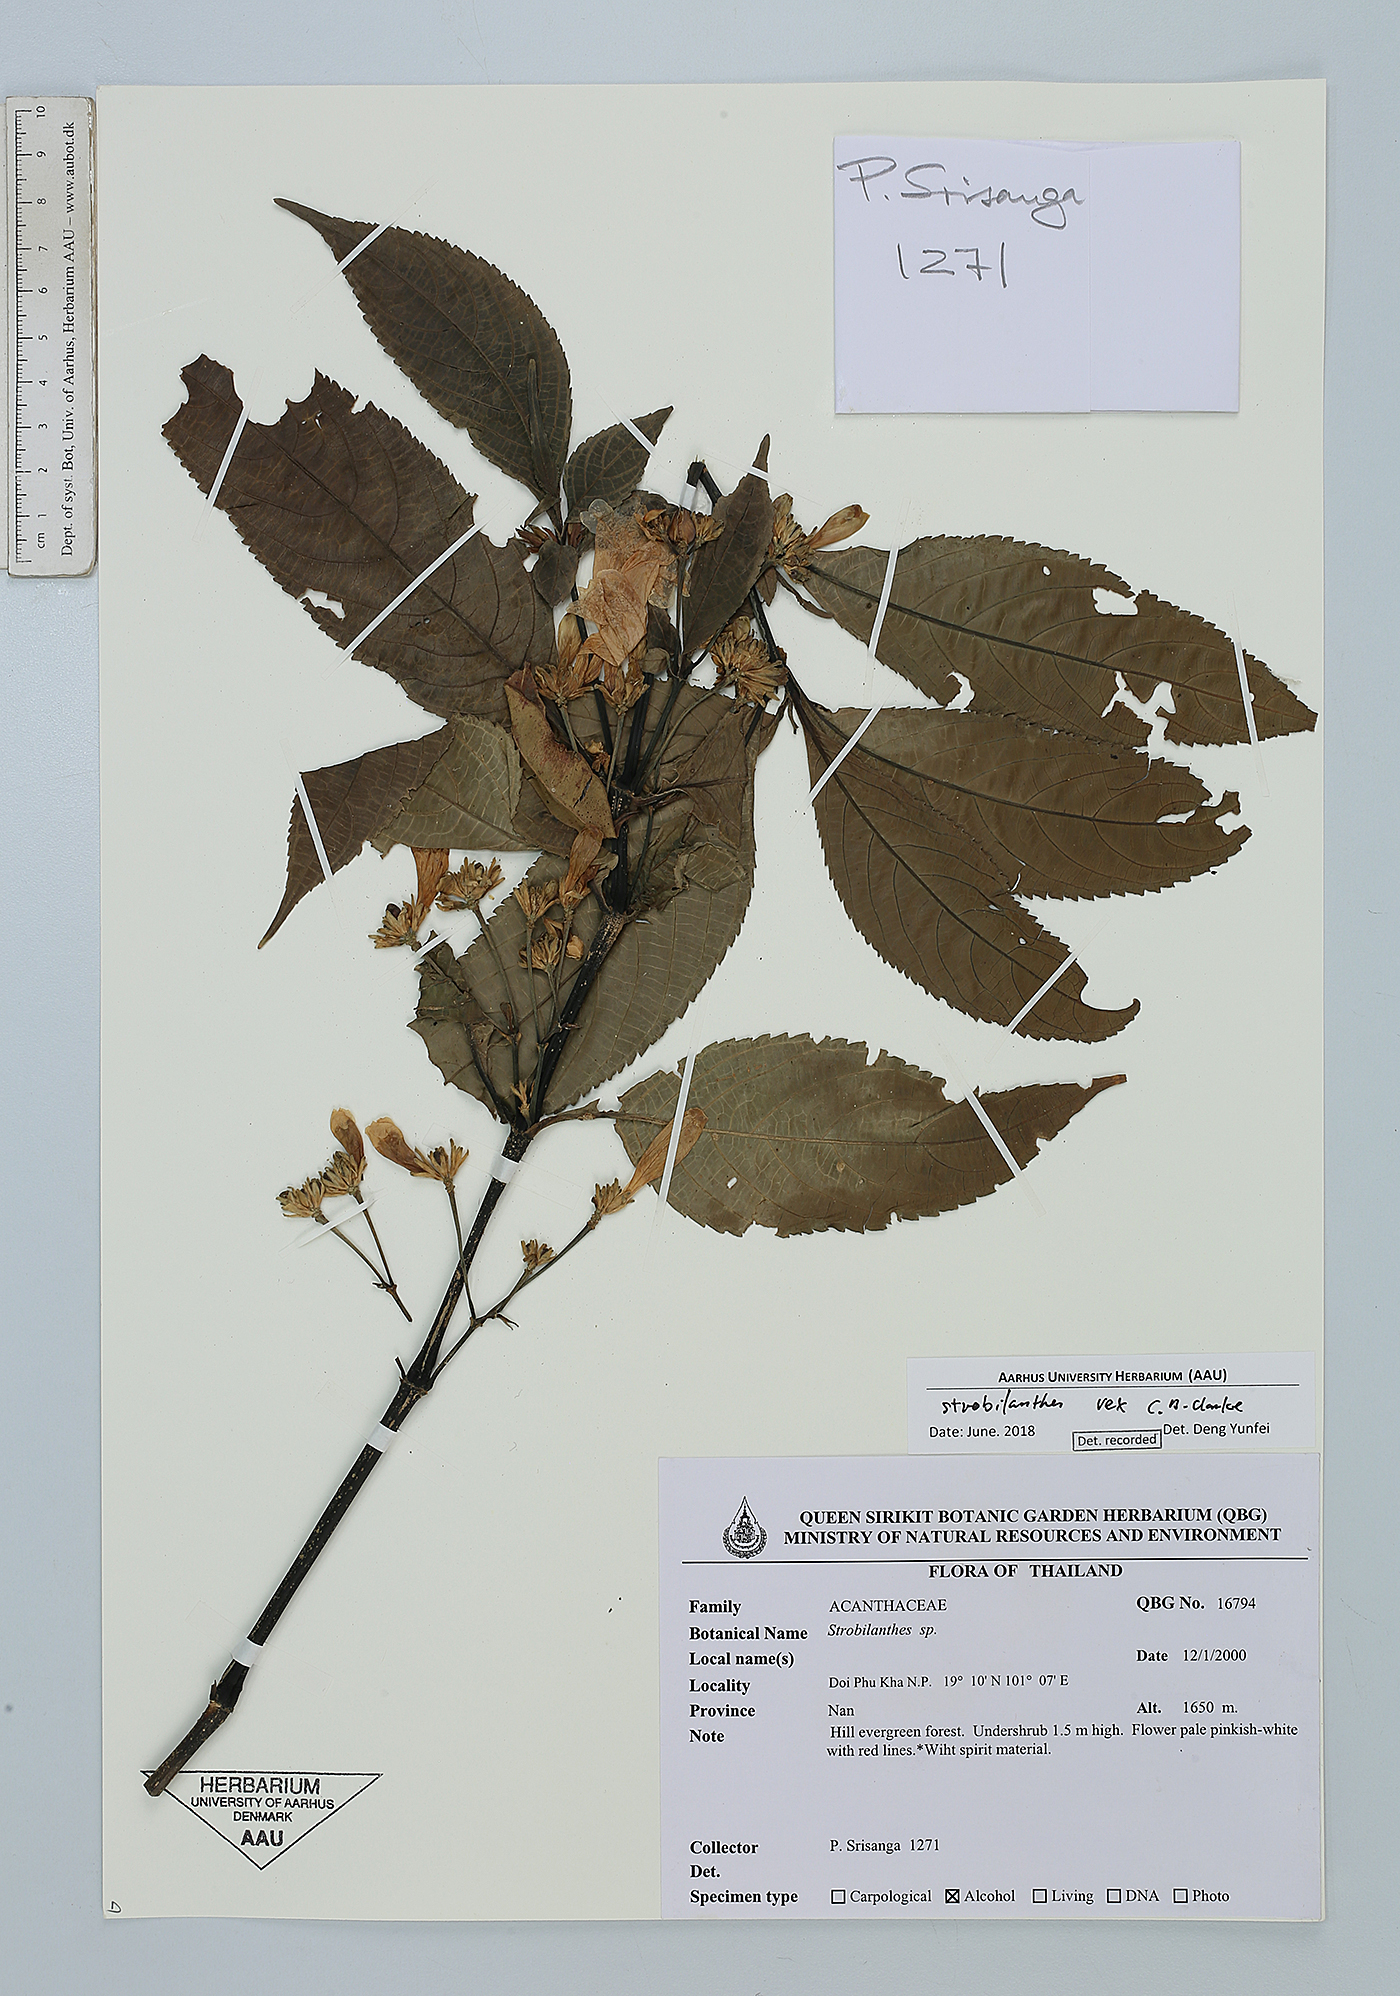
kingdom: Plantae
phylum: Tracheophyta
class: Magnoliopsida
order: Lamiales
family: Acanthaceae
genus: Strobilanthes
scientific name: Strobilanthes dimorphotricha
